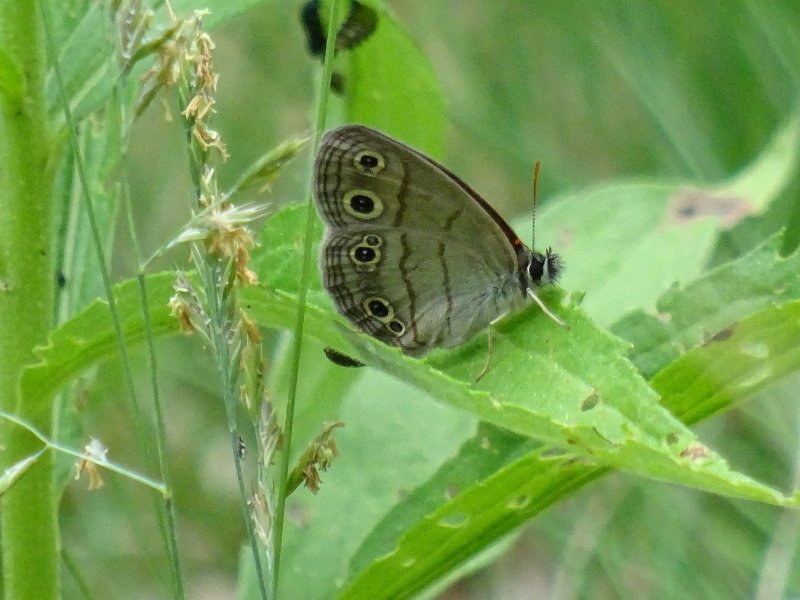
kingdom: Animalia
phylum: Arthropoda
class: Insecta
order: Lepidoptera
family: Nymphalidae
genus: Euptychia
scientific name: Euptychia cymela
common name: Little Wood Satyr
